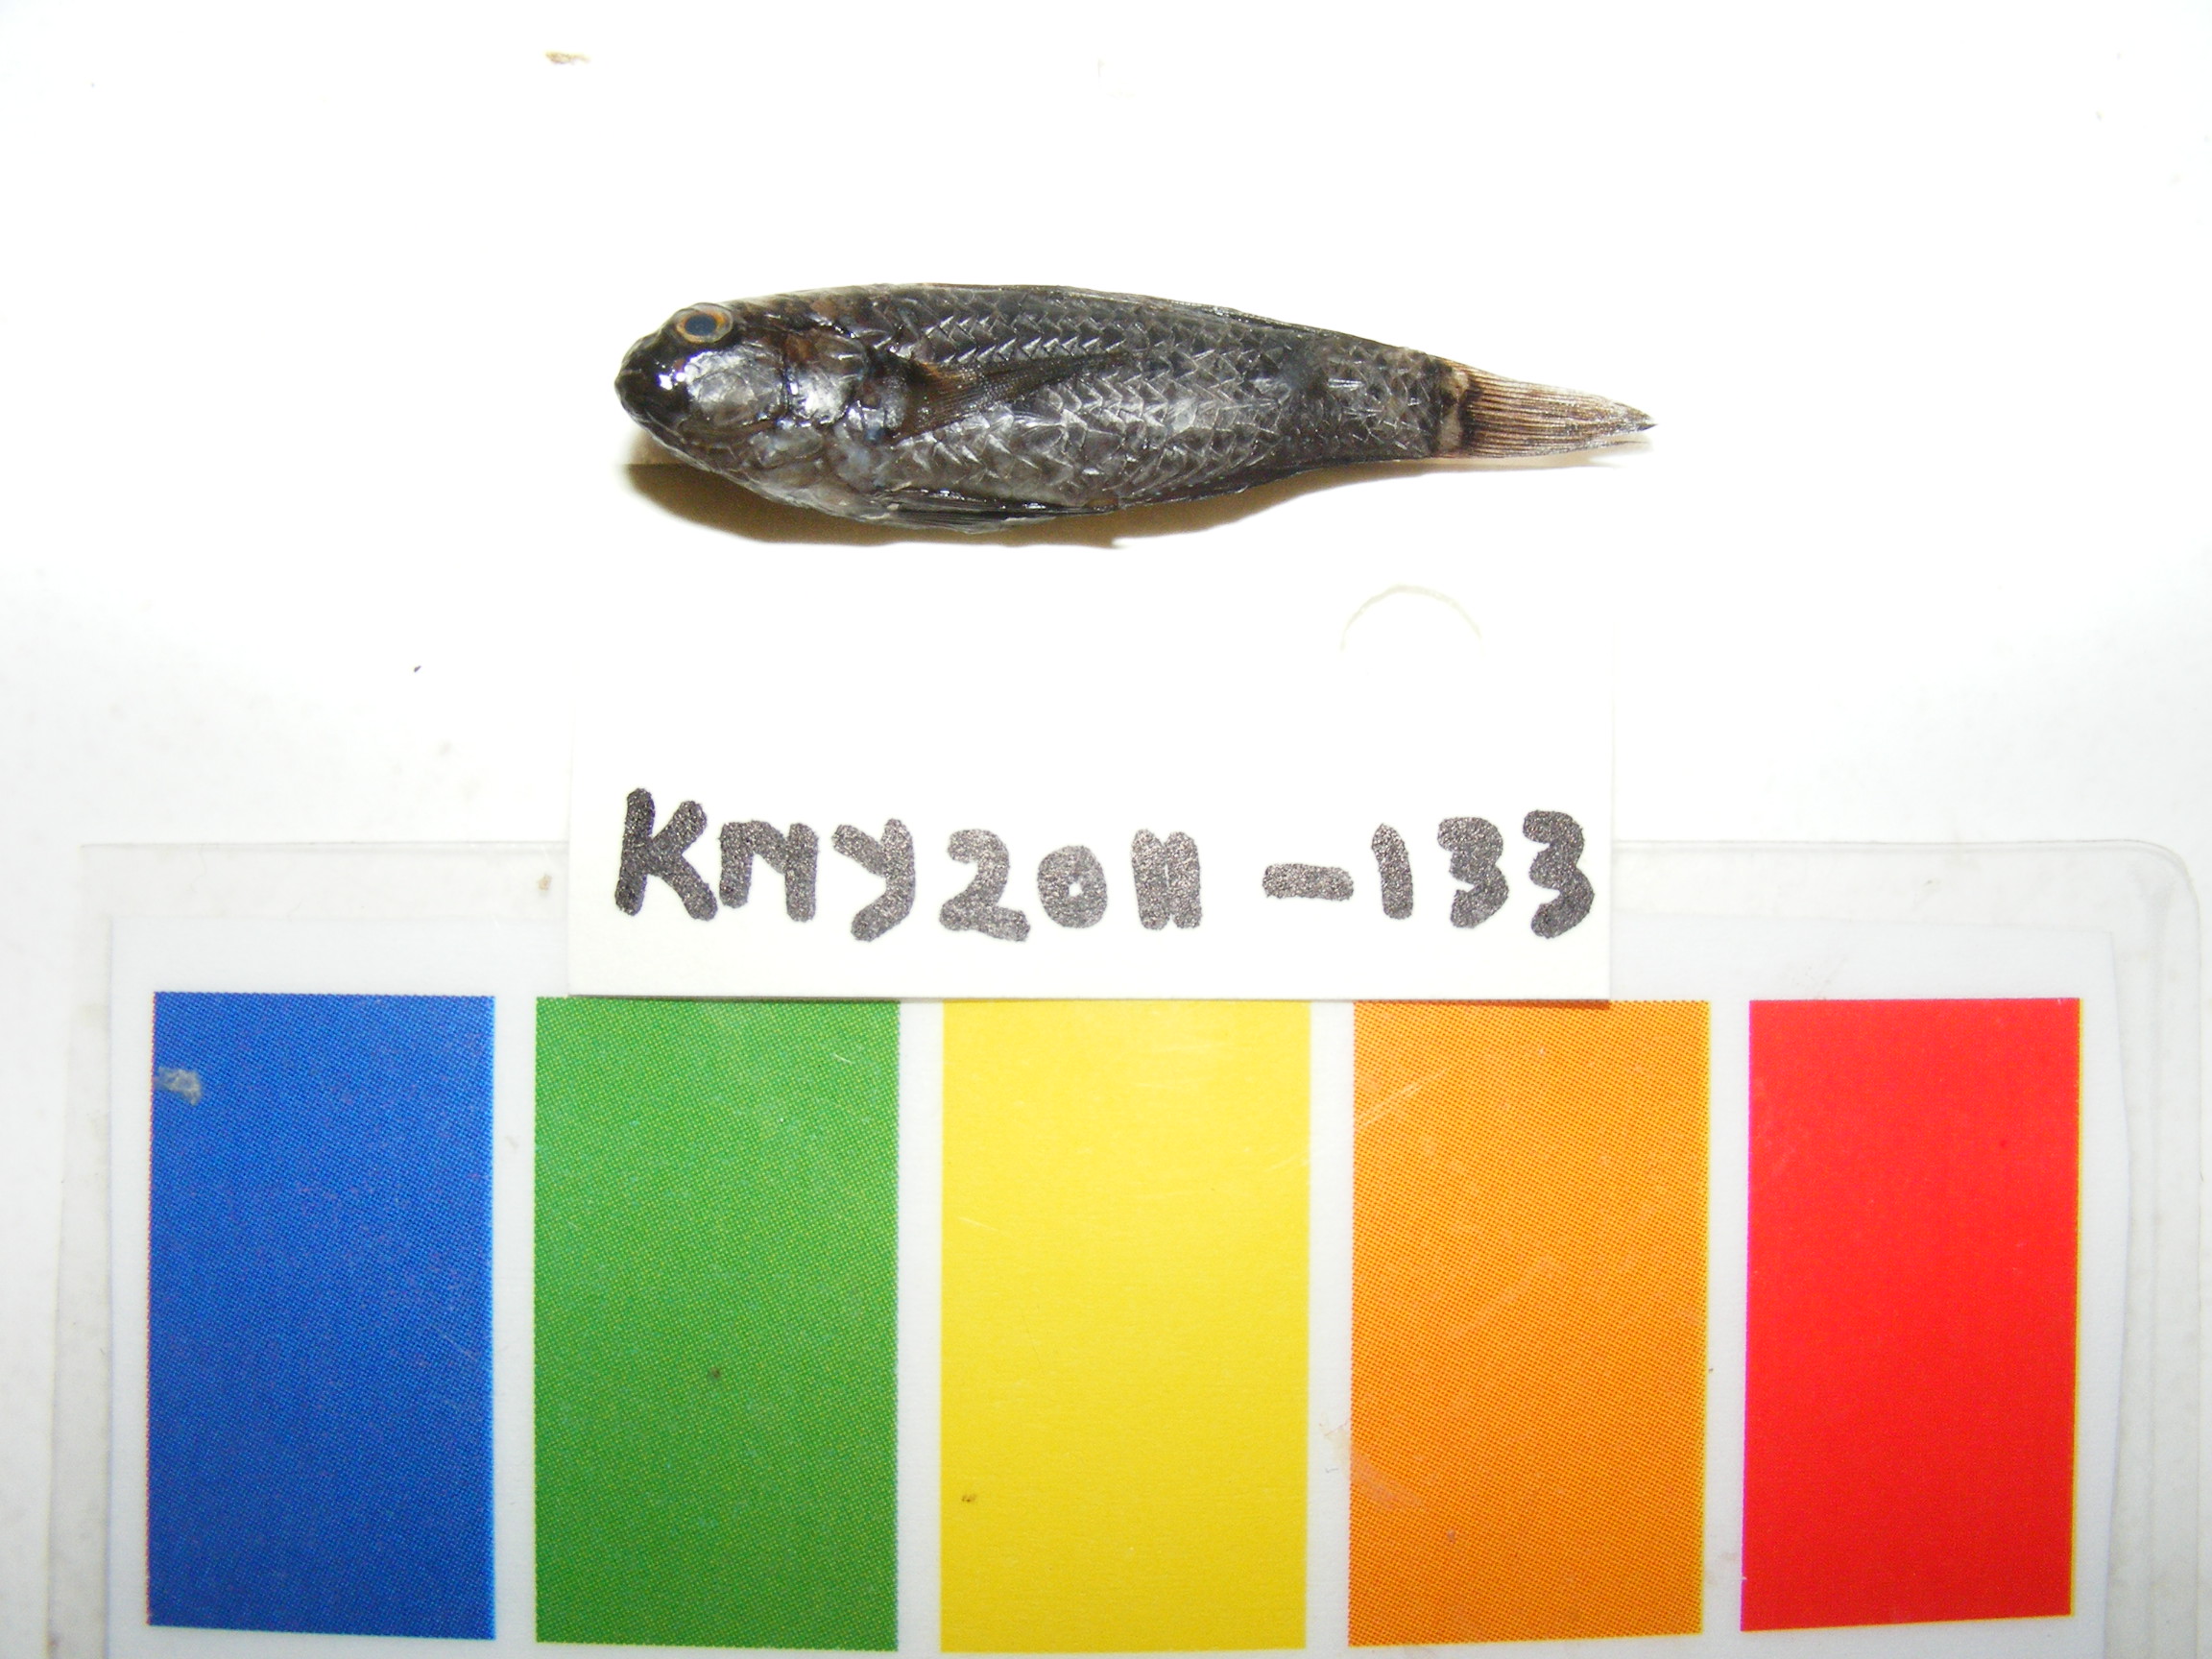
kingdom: Animalia
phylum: Chordata
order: Perciformes
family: Gobiidae
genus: Gnatholepis
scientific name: Gnatholepis
